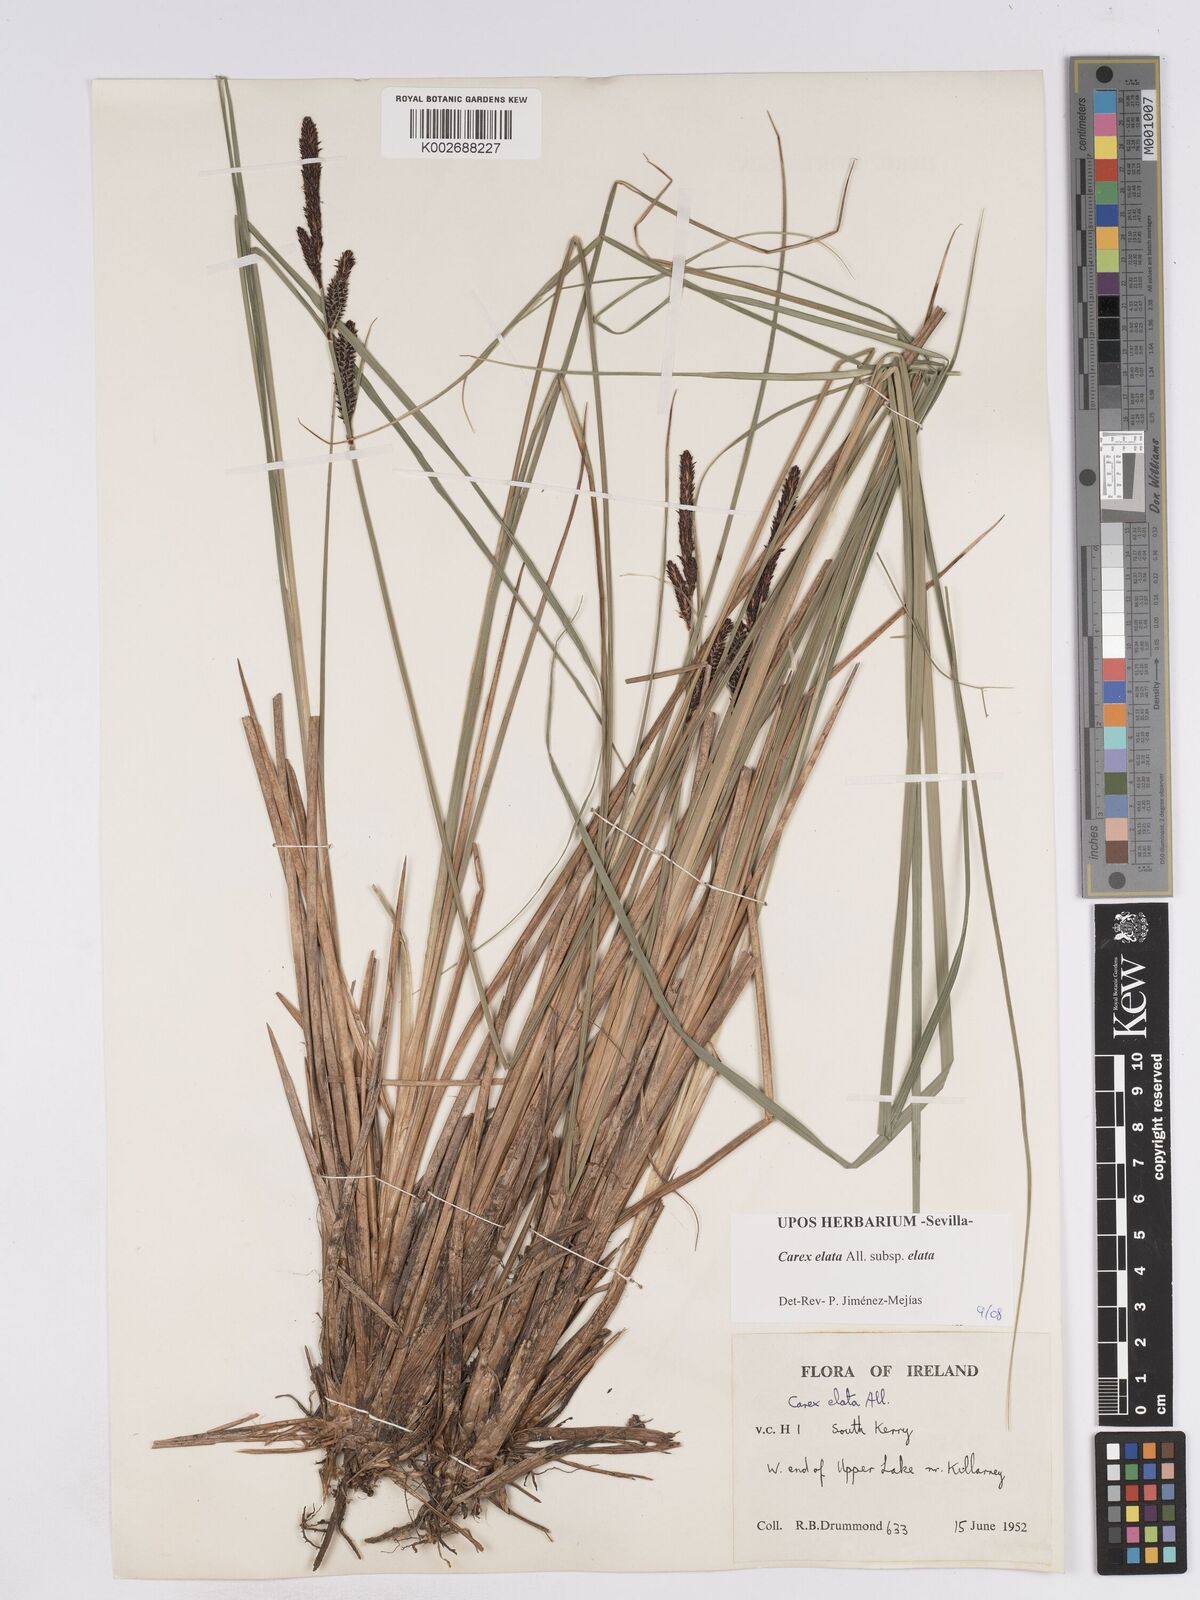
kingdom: Plantae
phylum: Tracheophyta
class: Liliopsida
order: Poales
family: Cyperaceae
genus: Carex
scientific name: Carex elata
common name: Tufted sedge
